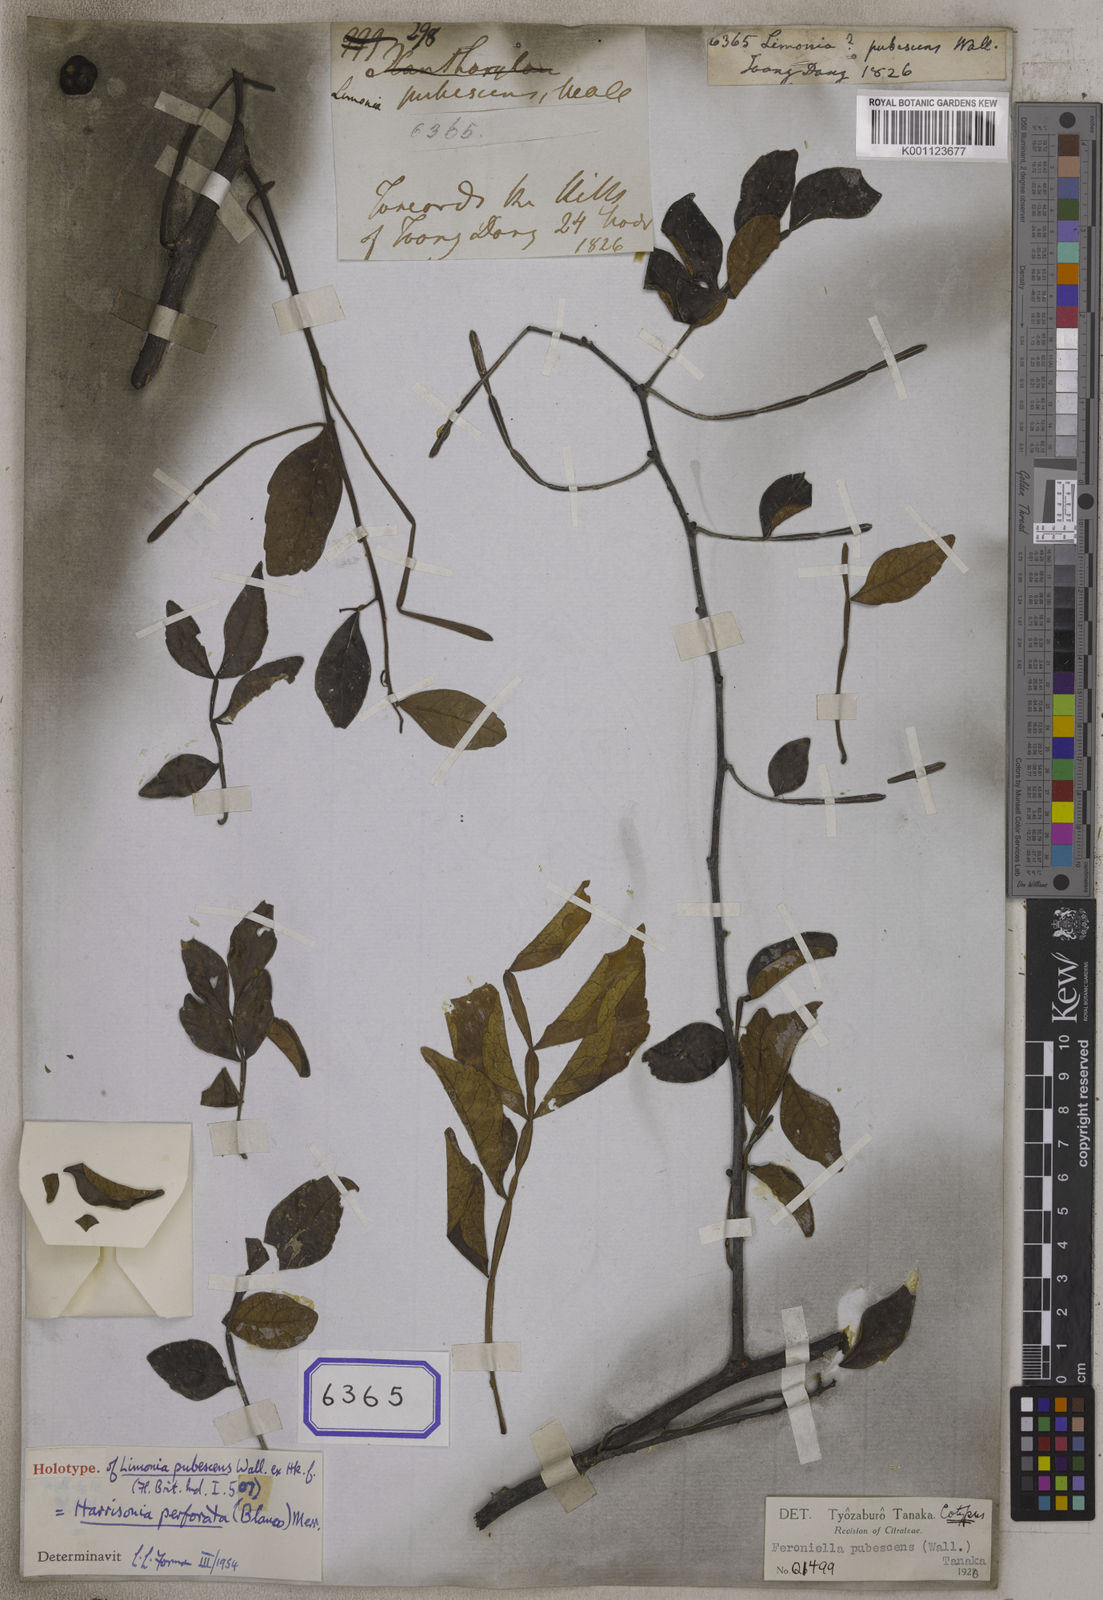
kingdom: Plantae
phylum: Tracheophyta
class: Magnoliopsida
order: Sapindales
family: Rutaceae
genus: Limonia
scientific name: Limonia
